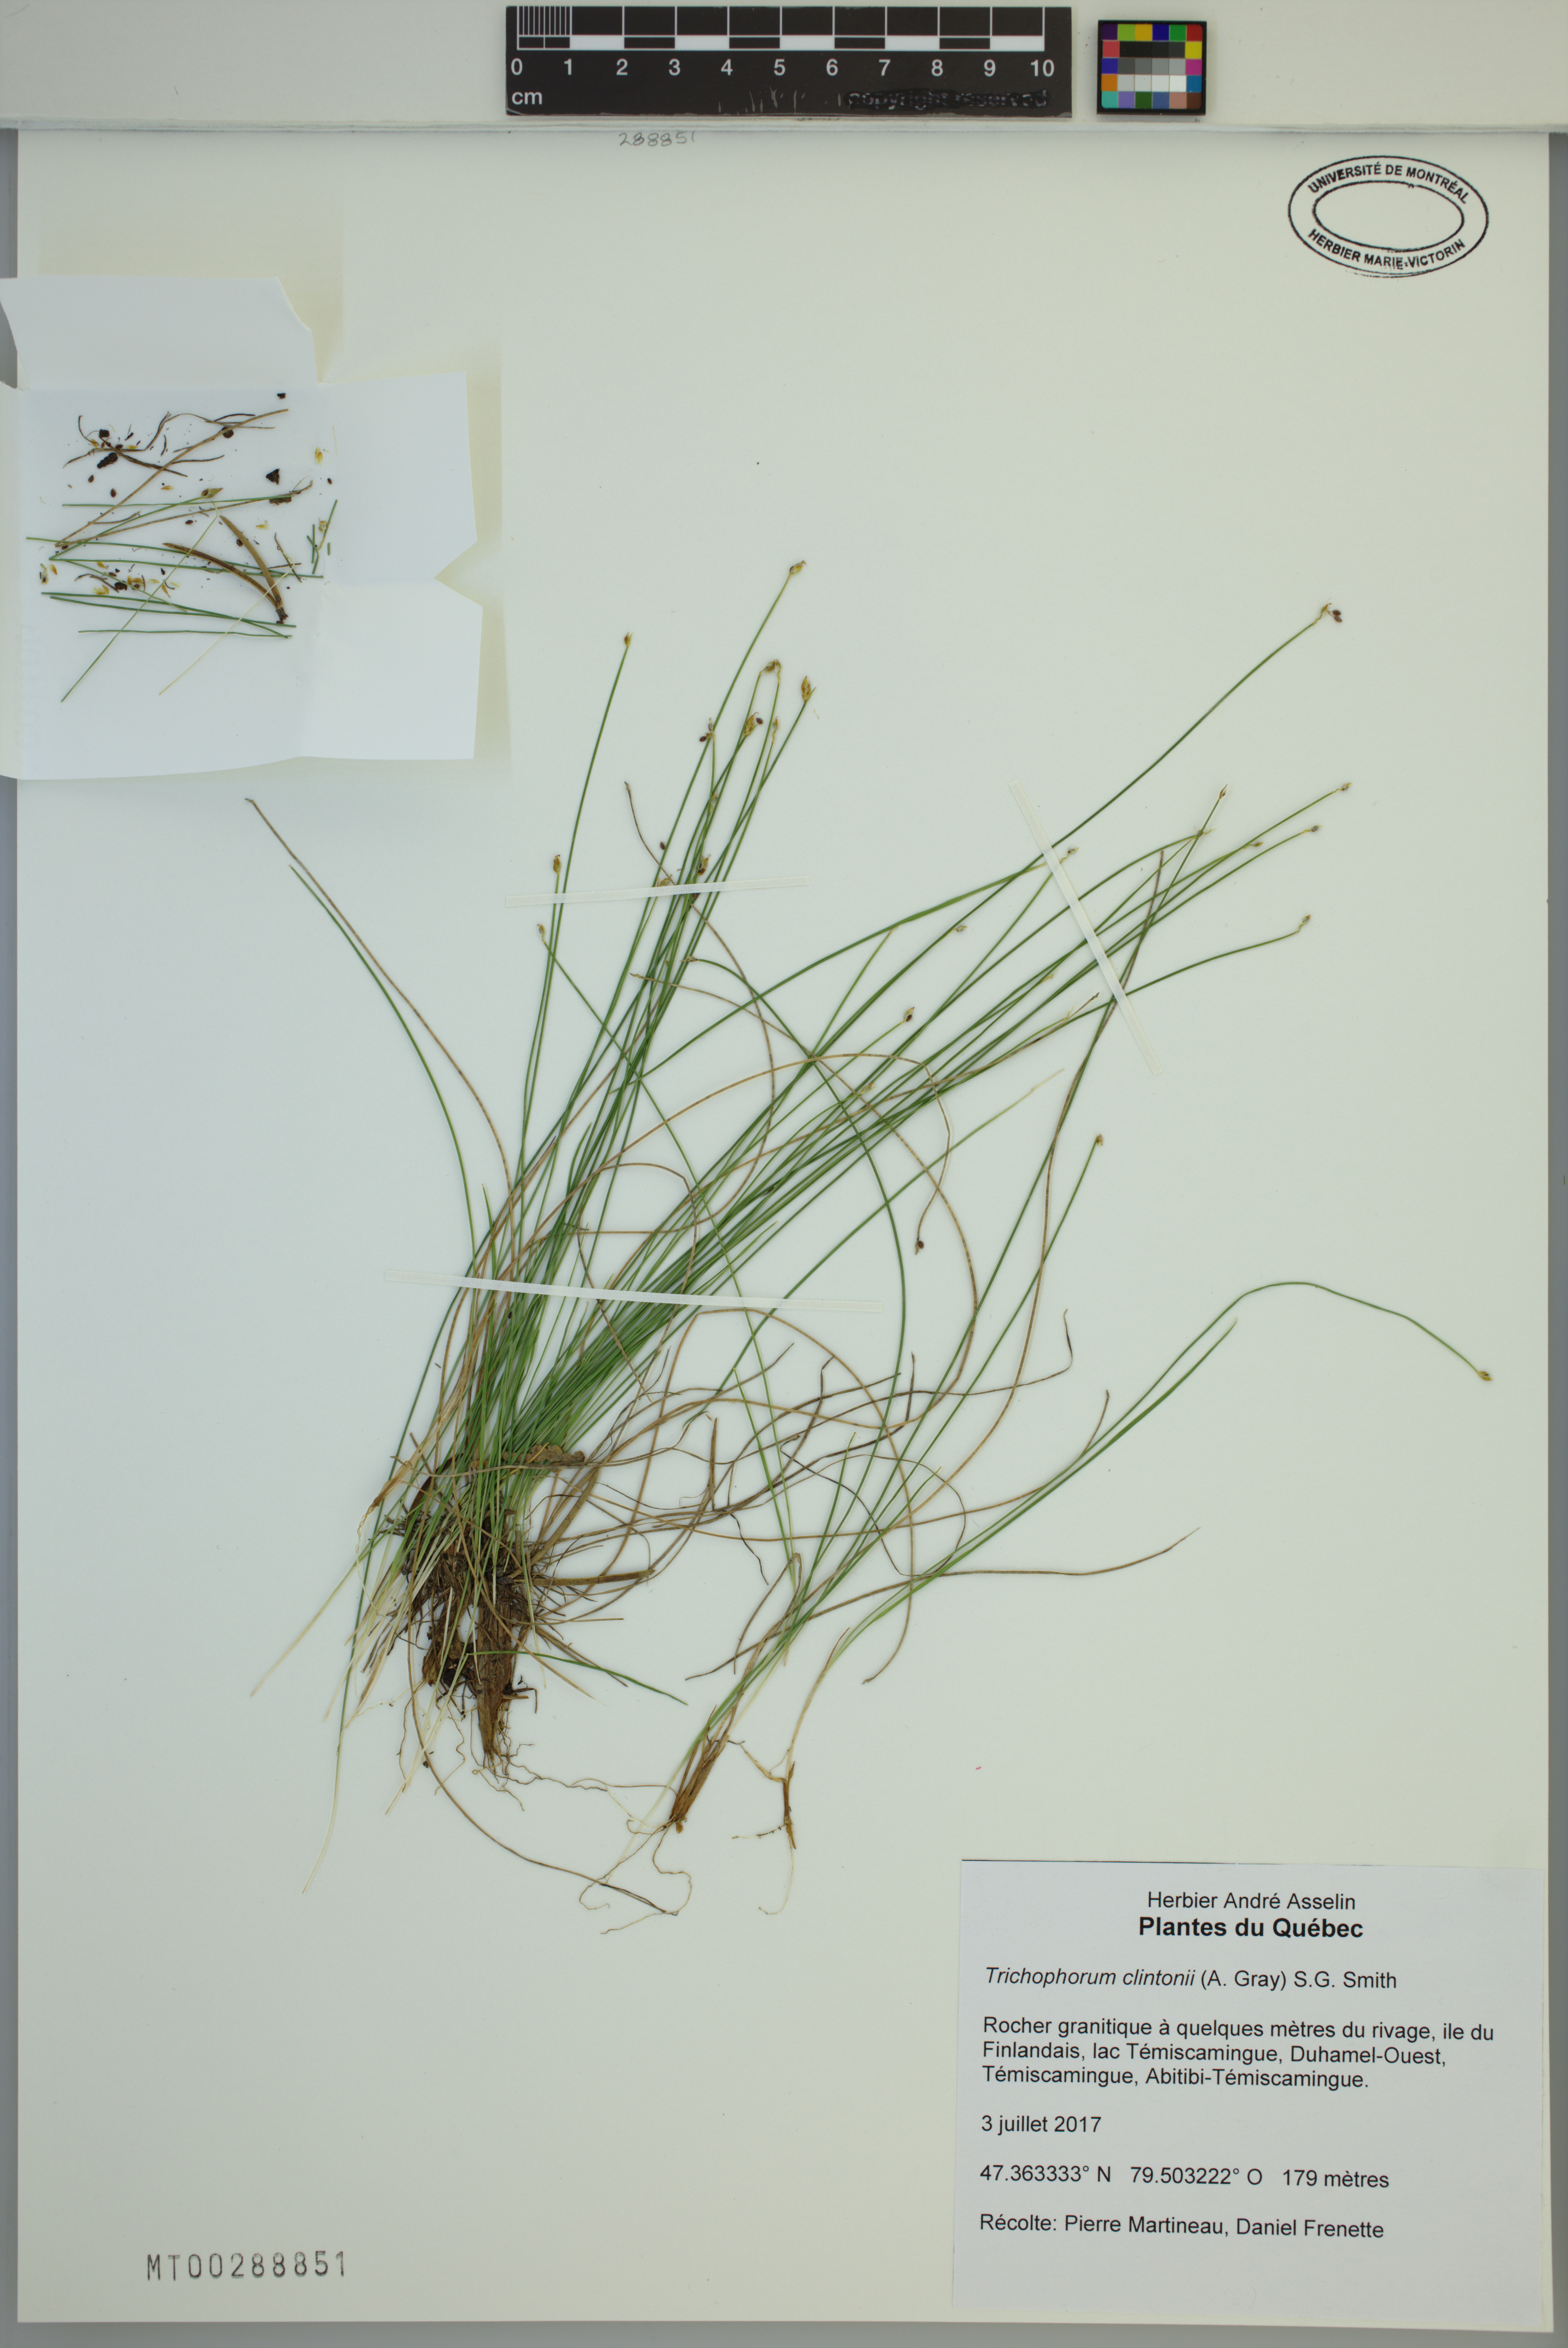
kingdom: Plantae
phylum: Tracheophyta
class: Liliopsida
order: Poales
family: Cyperaceae
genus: Trichophorum
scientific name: Trichophorum clintonii
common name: Clinton's bulrush
